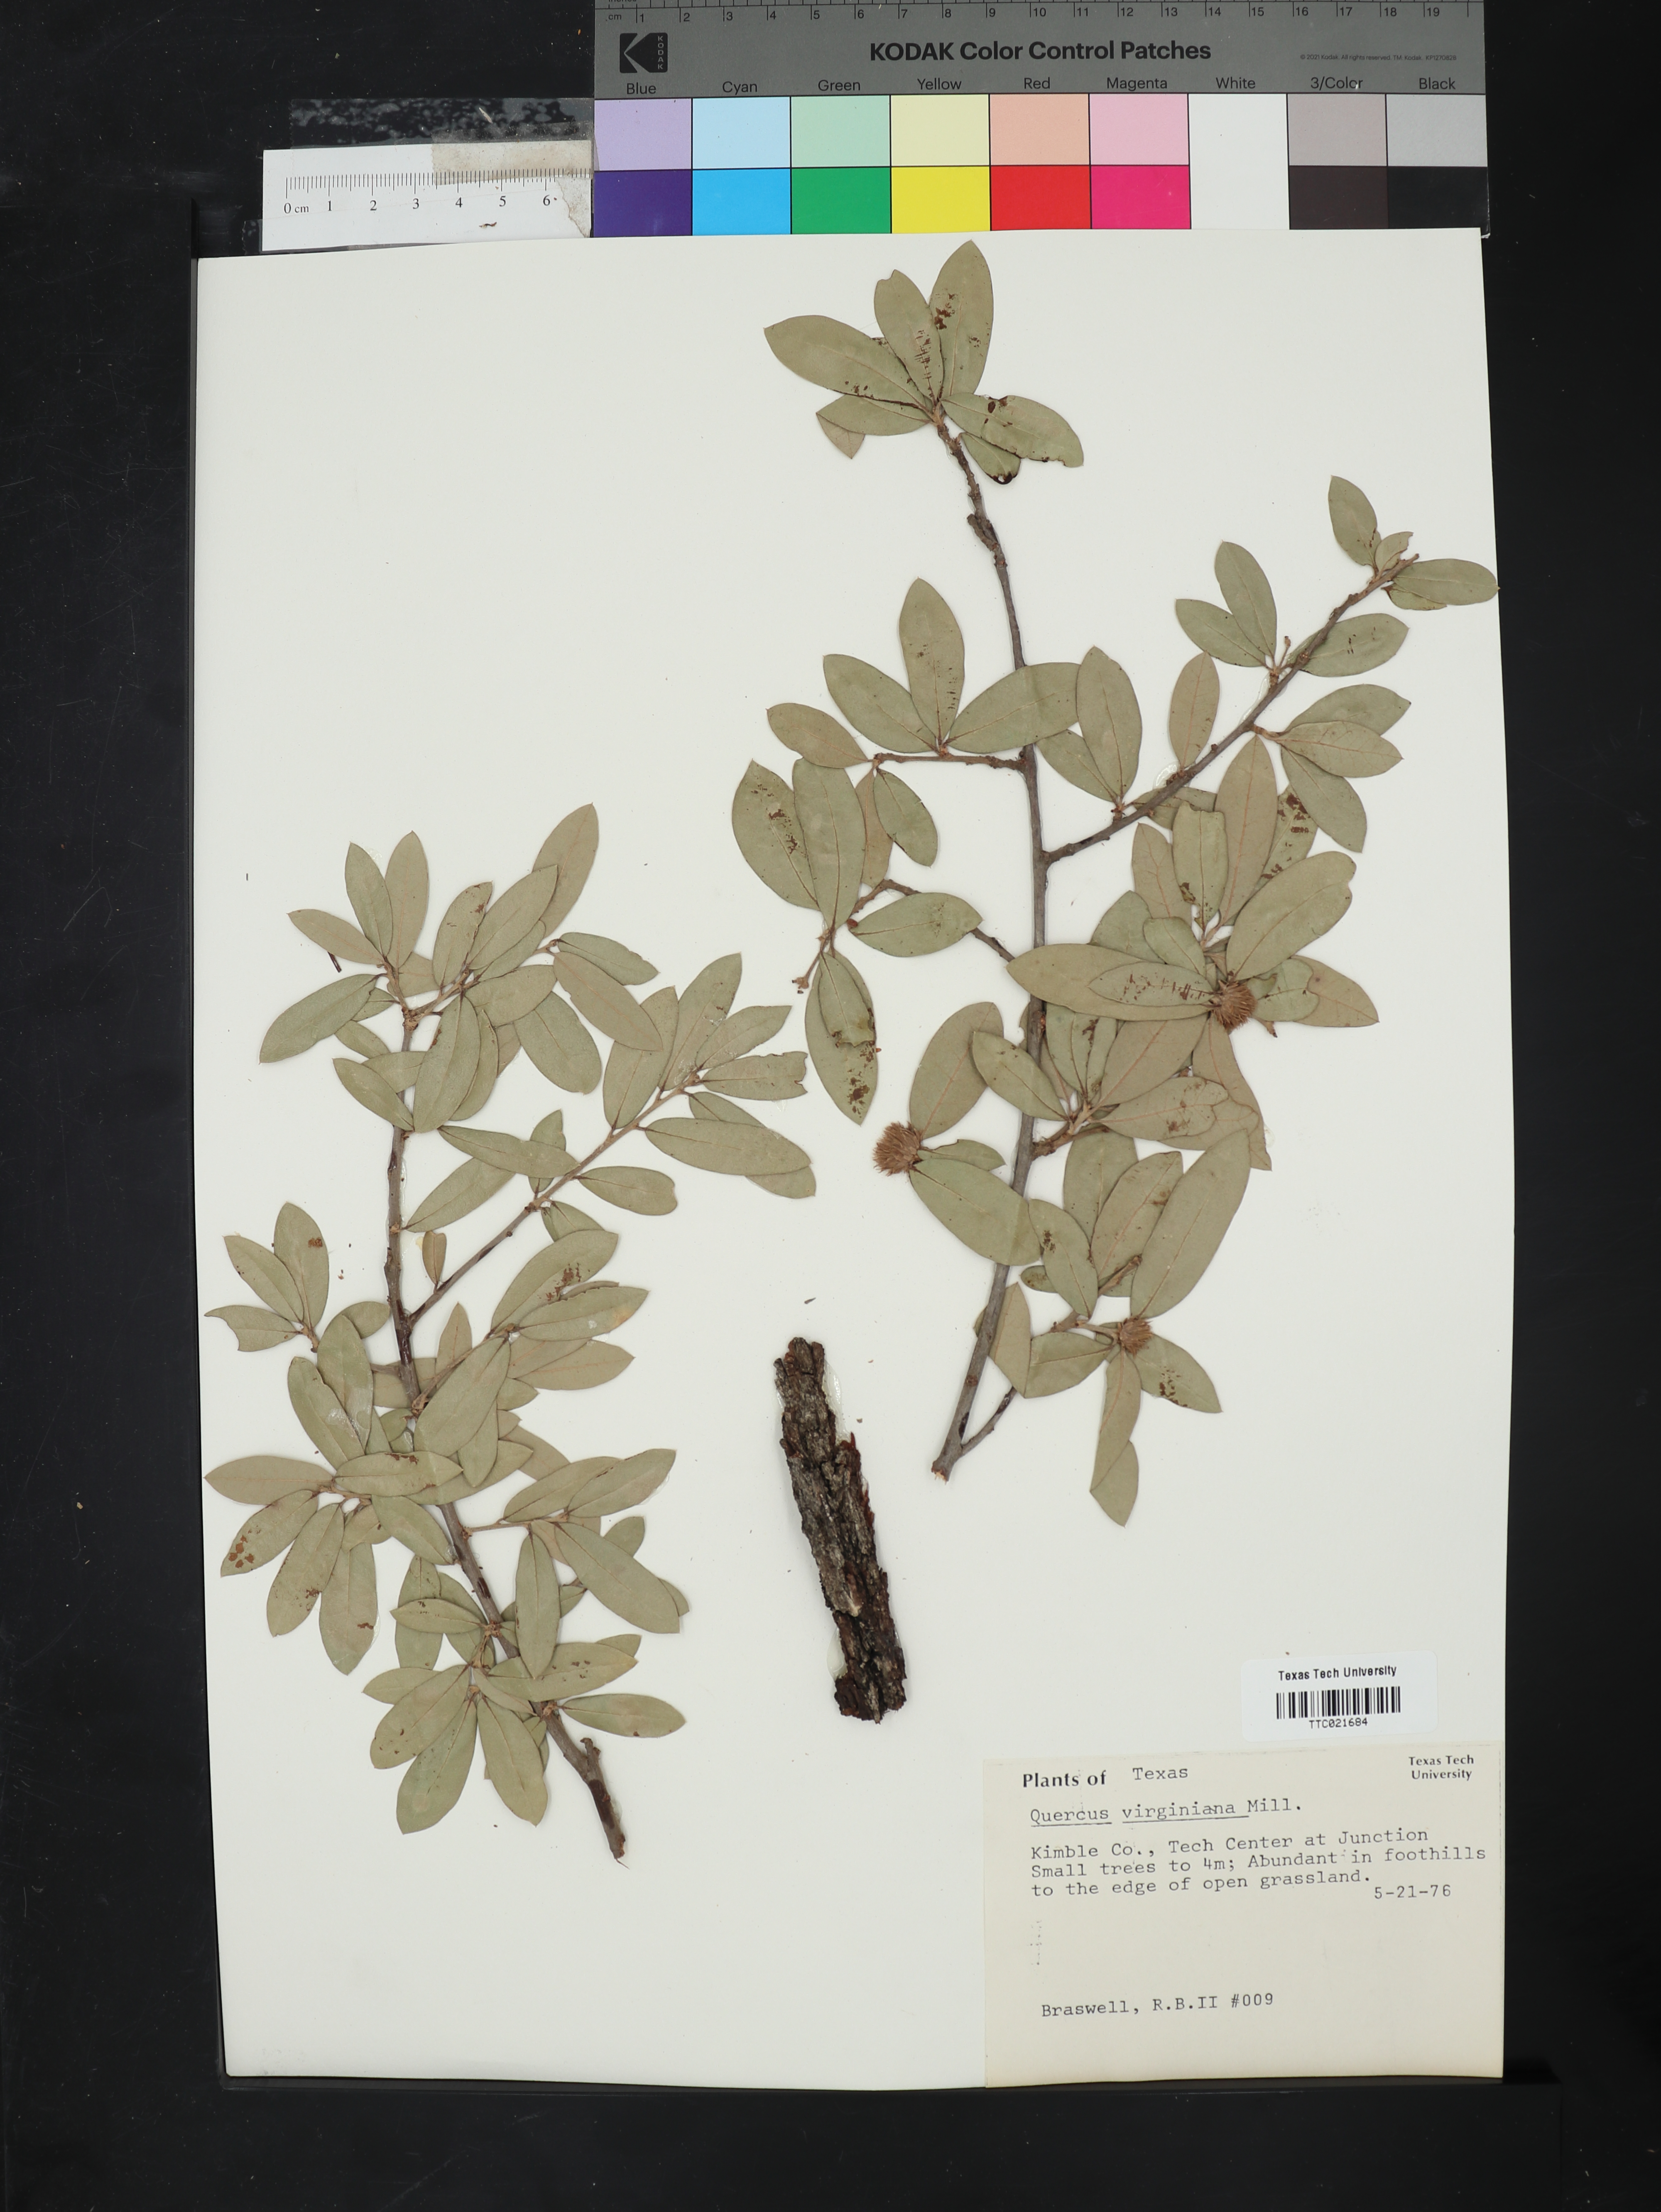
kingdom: Plantae
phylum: Tracheophyta
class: Magnoliopsida
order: Fagales
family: Fagaceae
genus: Quercus
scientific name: Quercus virginiana
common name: Southern live oak
